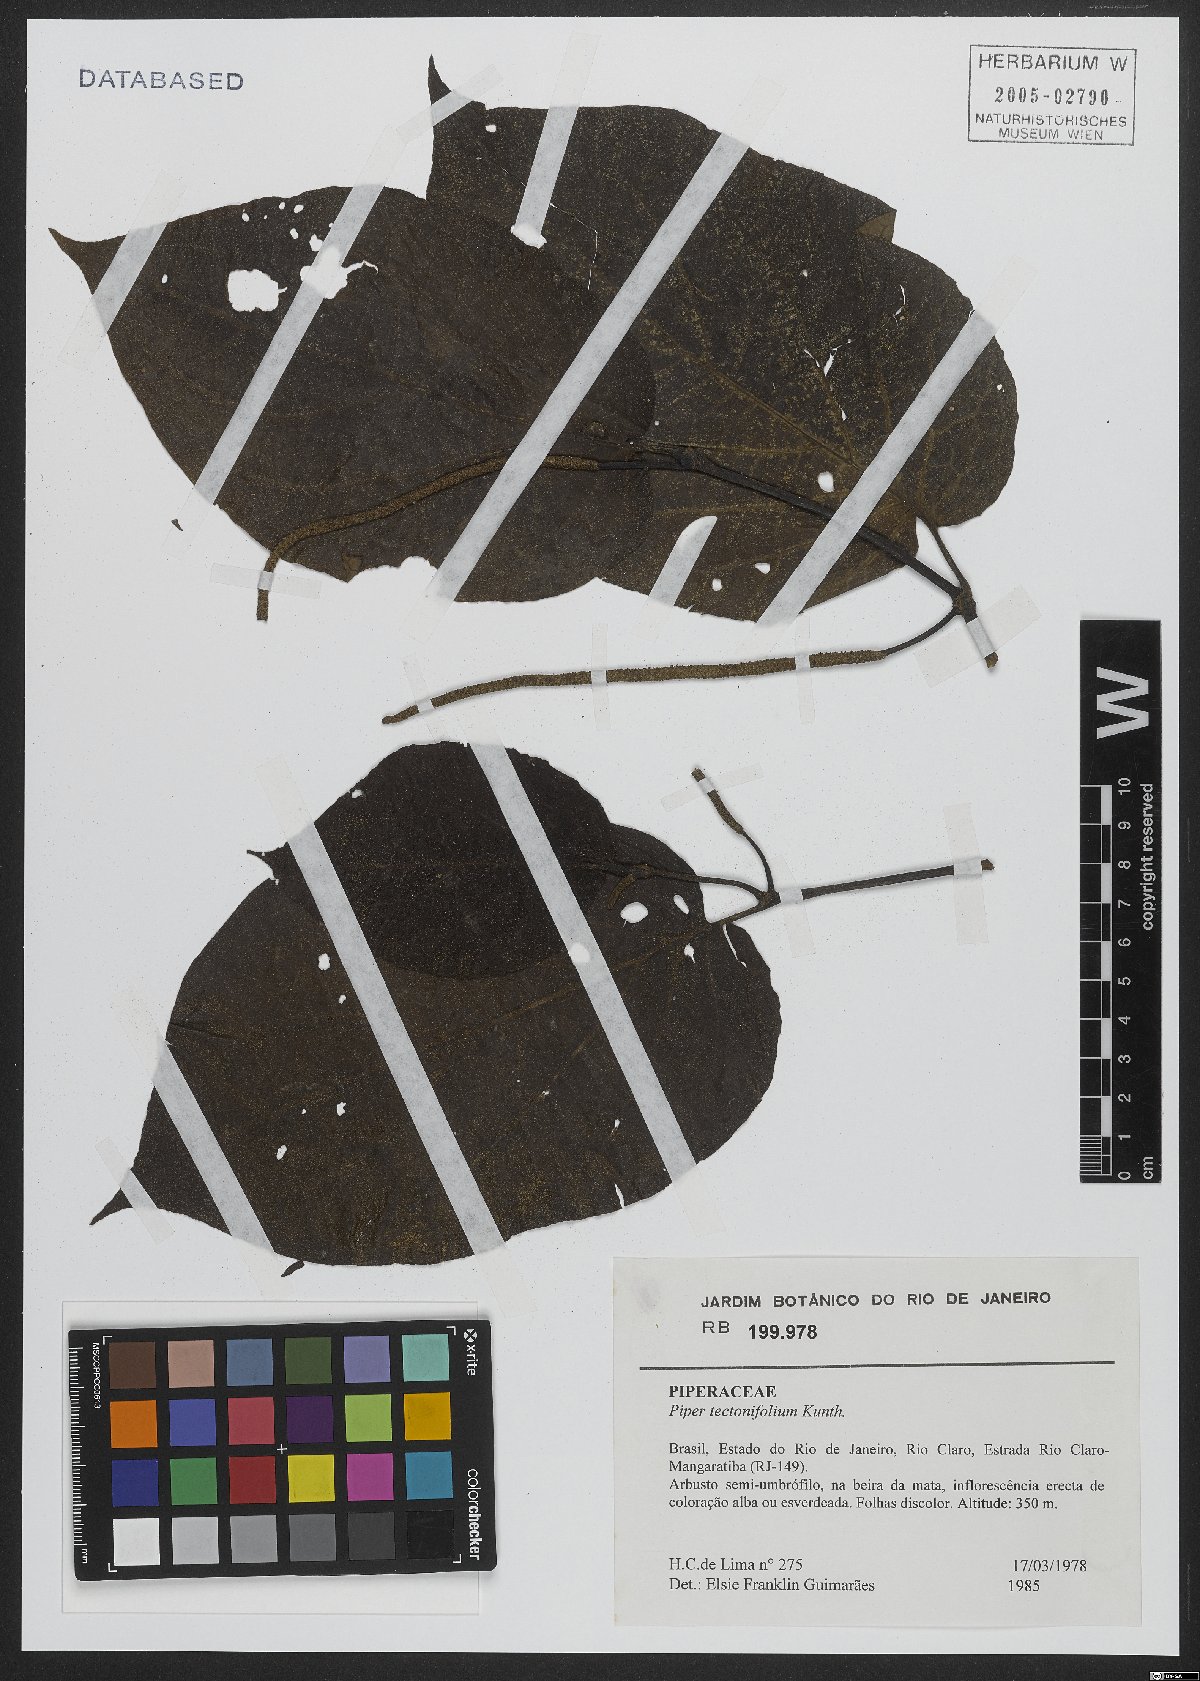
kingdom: Plantae
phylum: Tracheophyta
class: Magnoliopsida
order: Piperales
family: Piperaceae
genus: Piper
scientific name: Piper tectoniifolium
